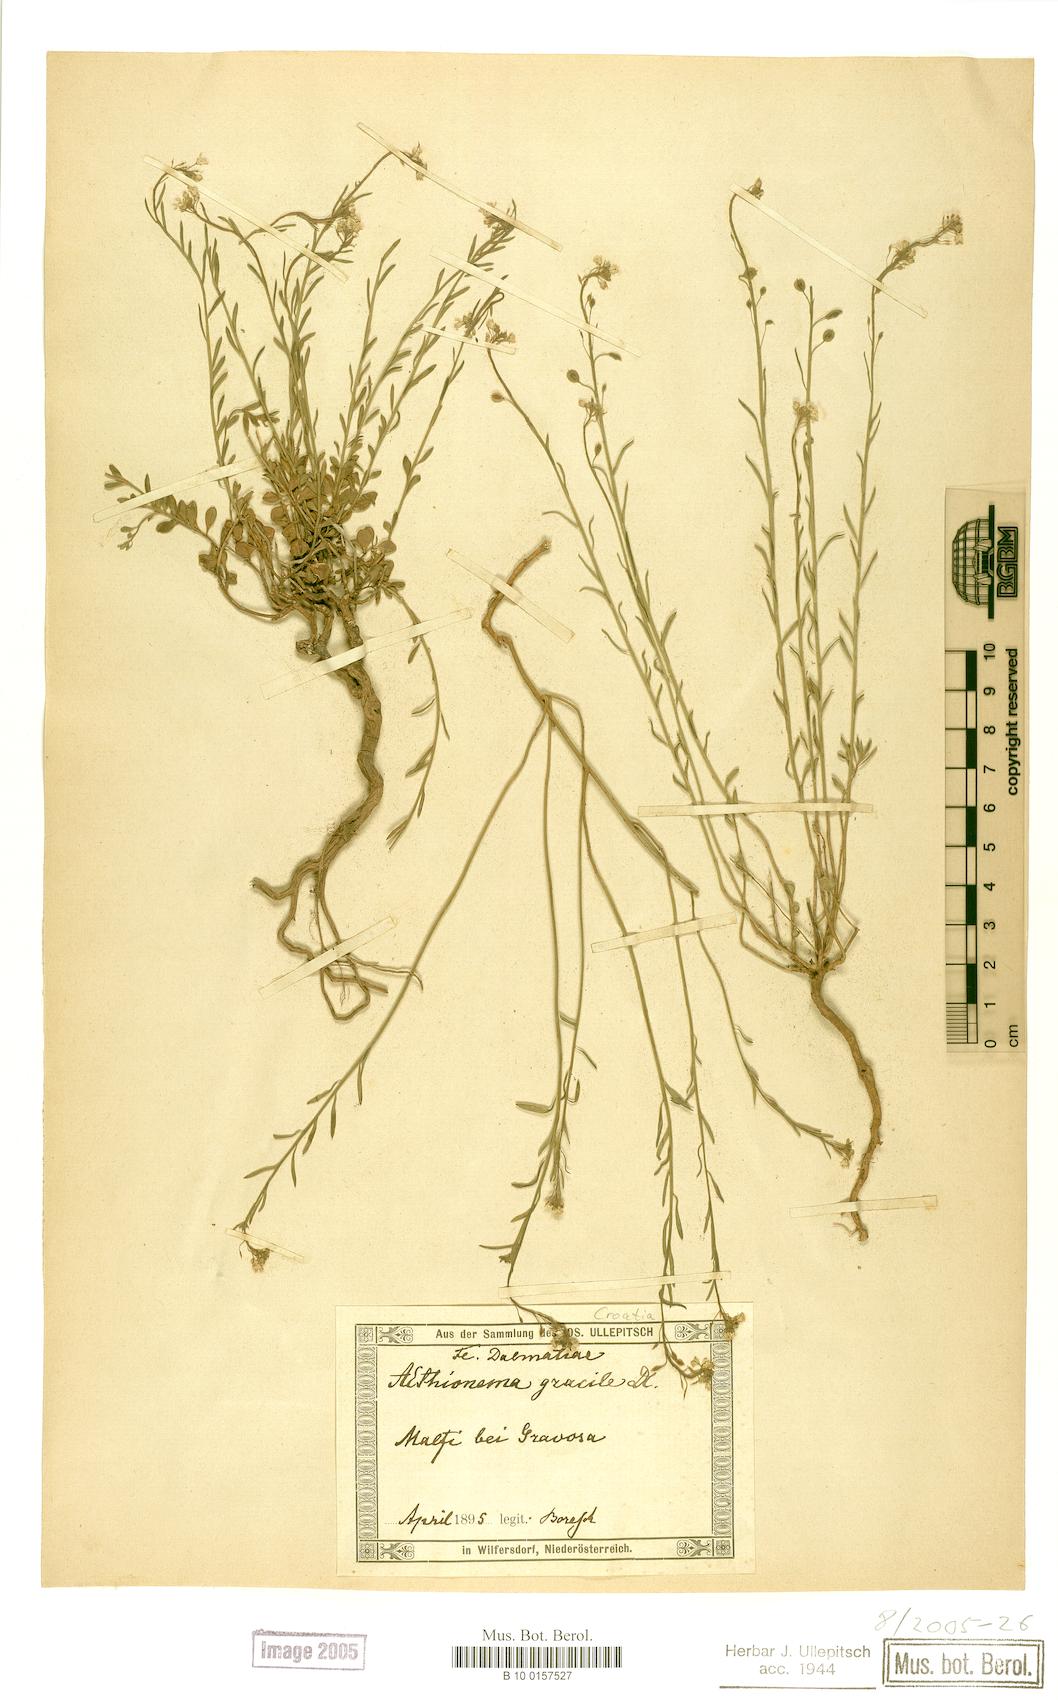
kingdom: Plantae
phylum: Tracheophyta
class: Magnoliopsida
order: Brassicales
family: Brassicaceae
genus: Aethionema
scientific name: Aethionema saxatile
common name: Burnt candytuft
